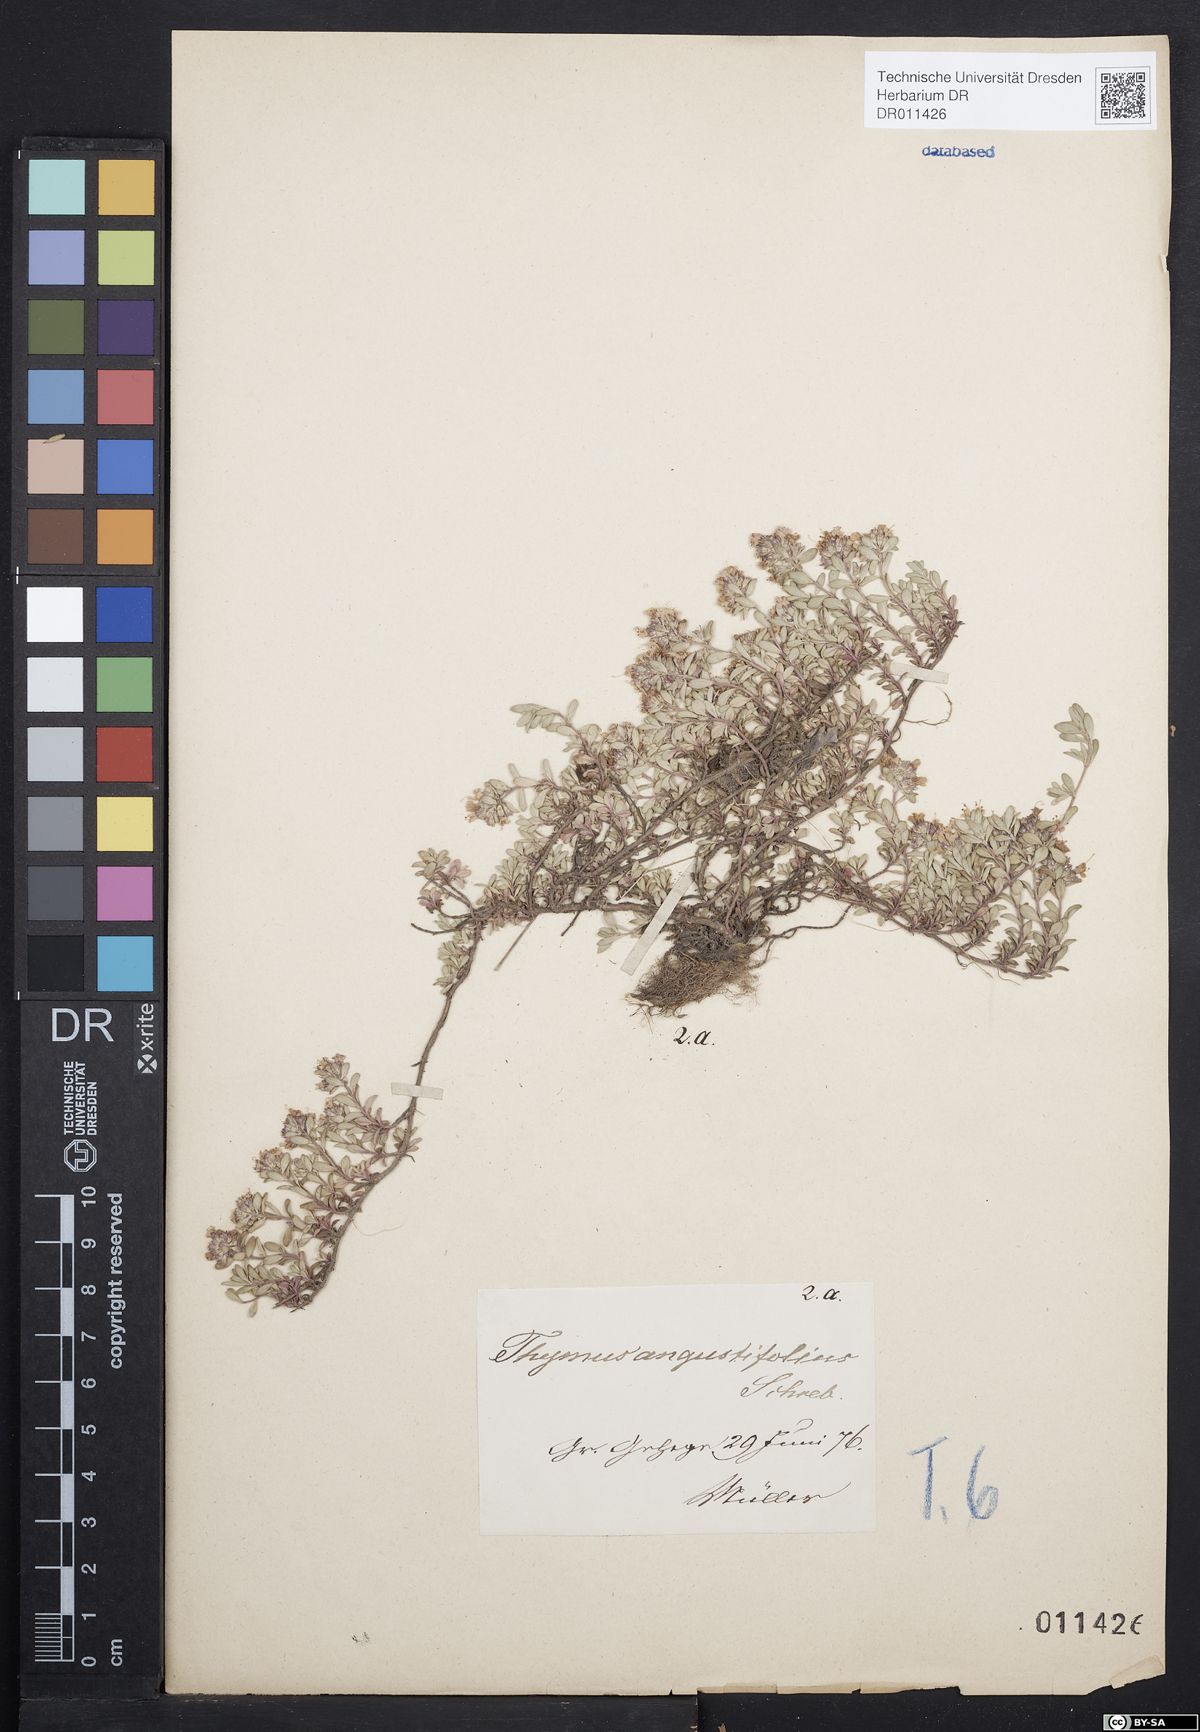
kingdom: Plantae
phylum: Tracheophyta
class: Magnoliopsida
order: Lamiales
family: Lamiaceae
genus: Thymus
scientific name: Thymus serpyllum
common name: Breckland thyme
